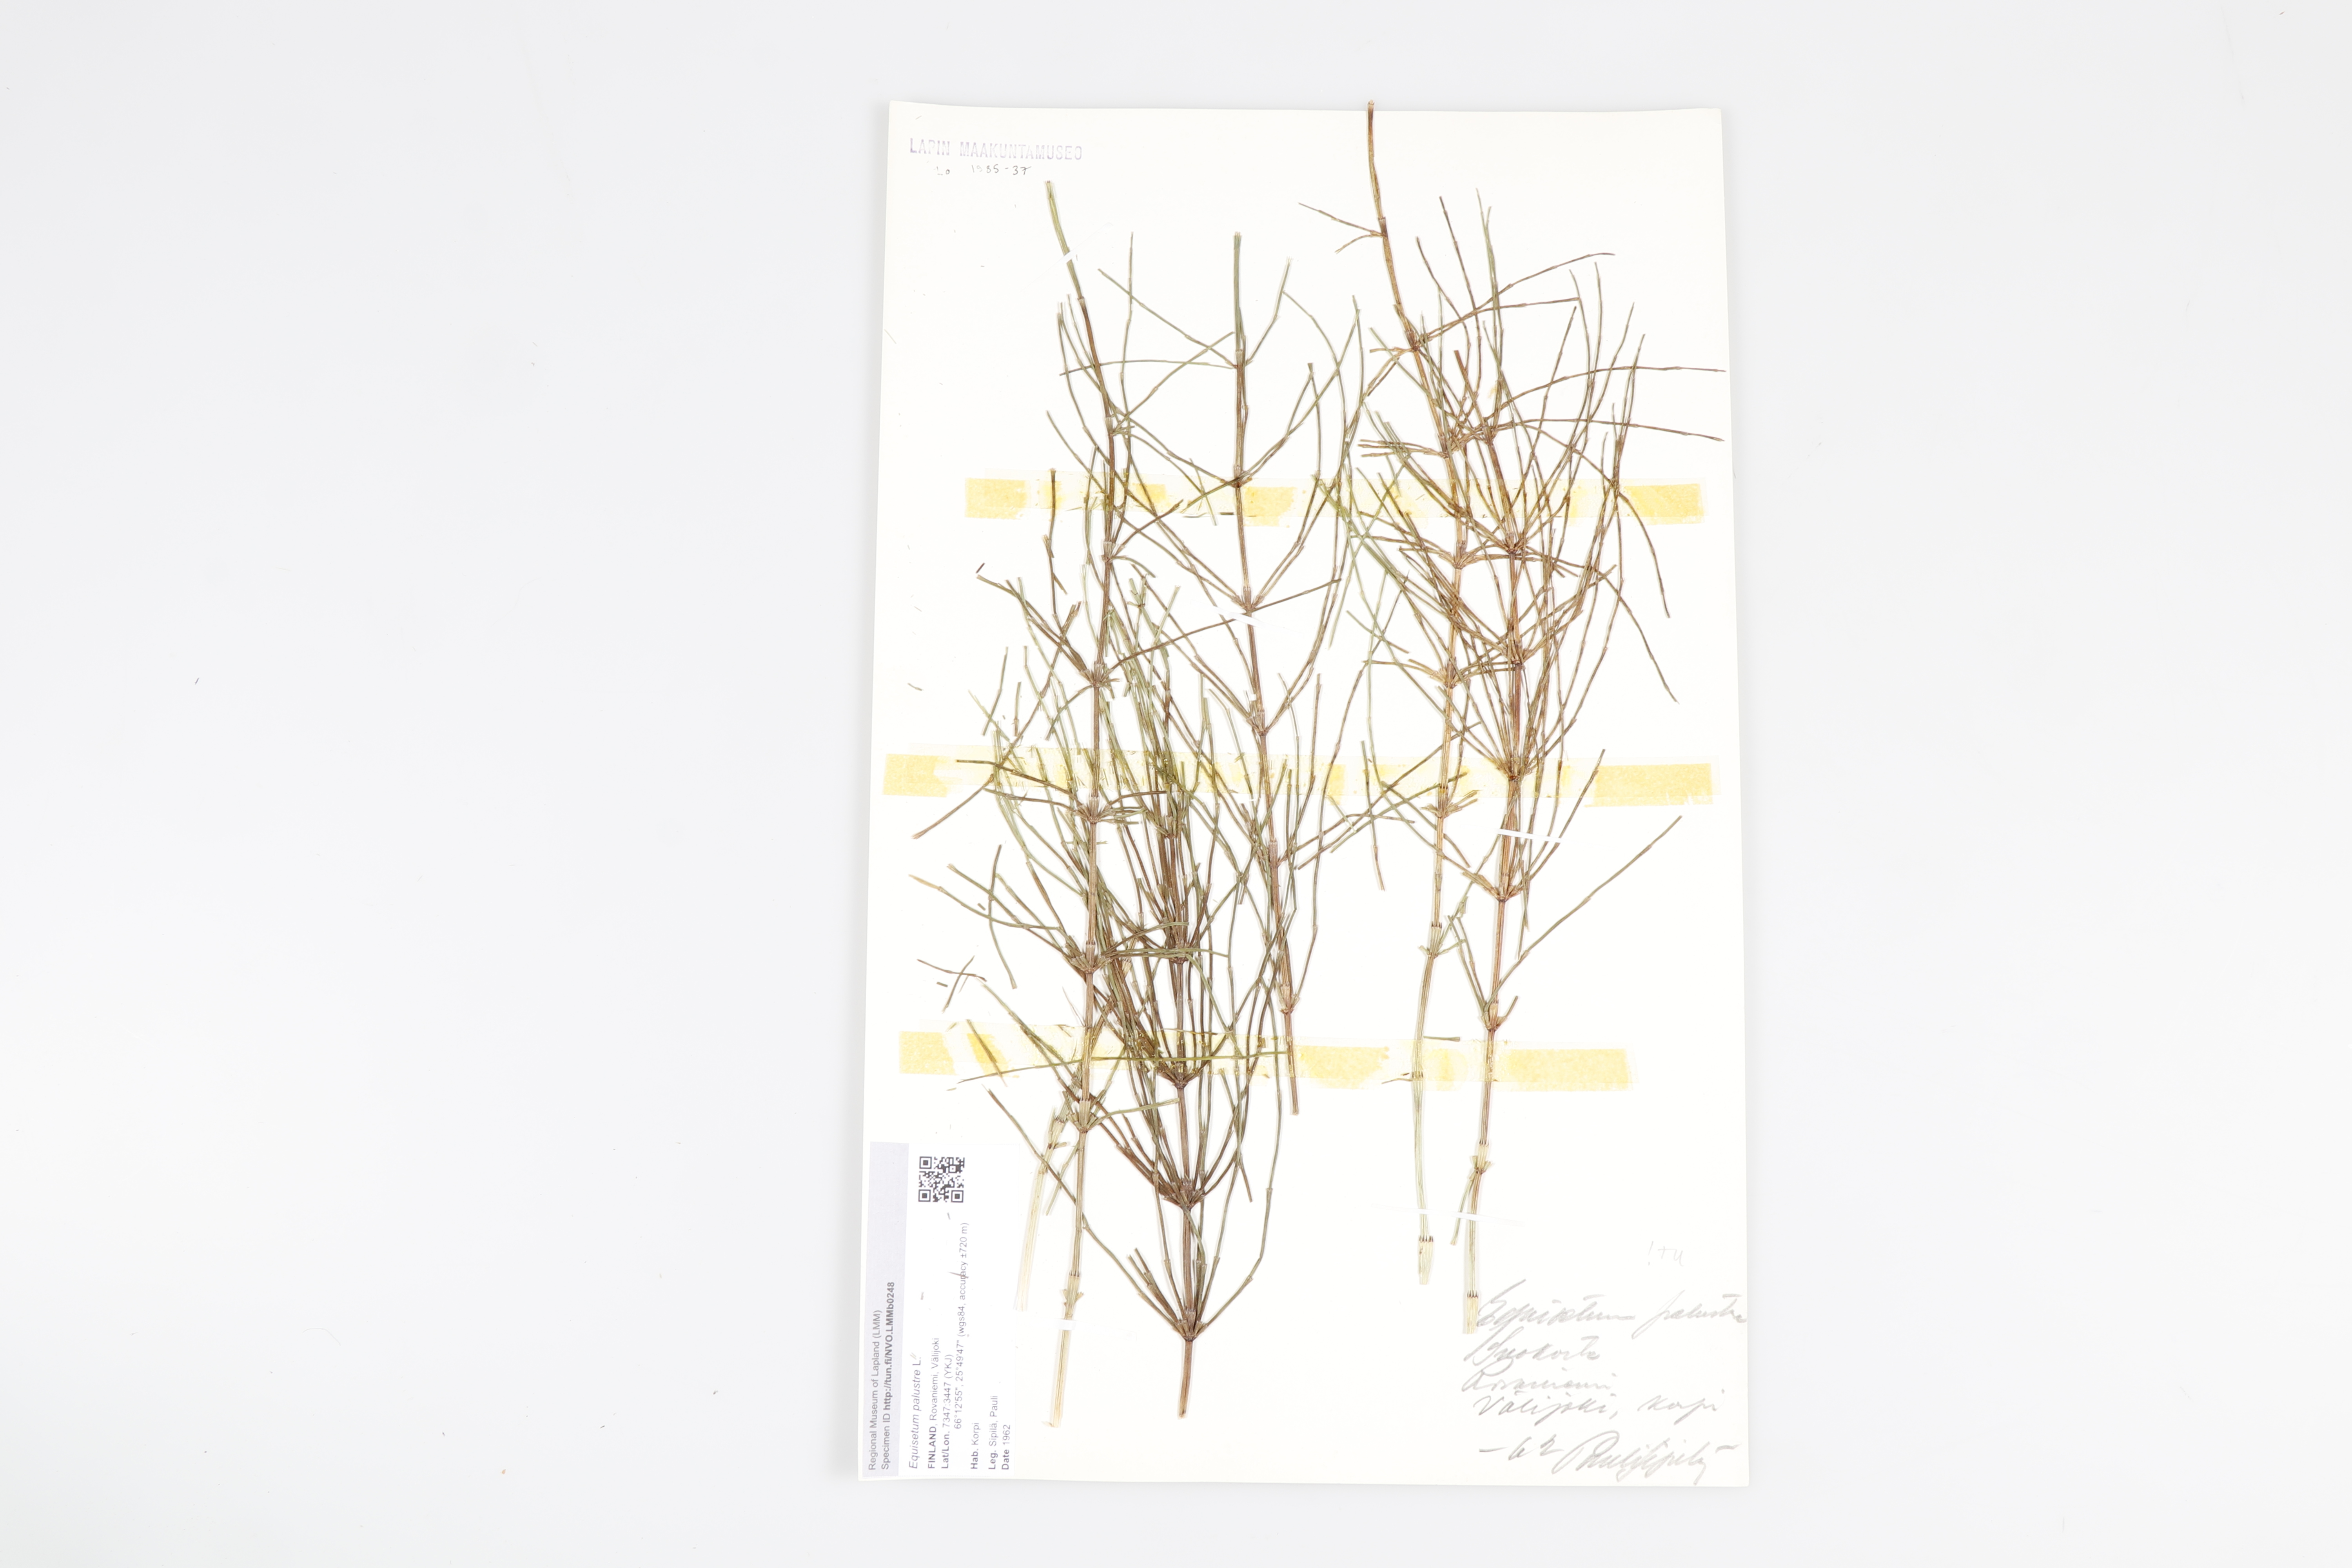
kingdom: Plantae
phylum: Tracheophyta
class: Polypodiopsida
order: Equisetales
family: Equisetaceae
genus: Equisetum
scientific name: Equisetum palustre
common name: Marsh horsetail
